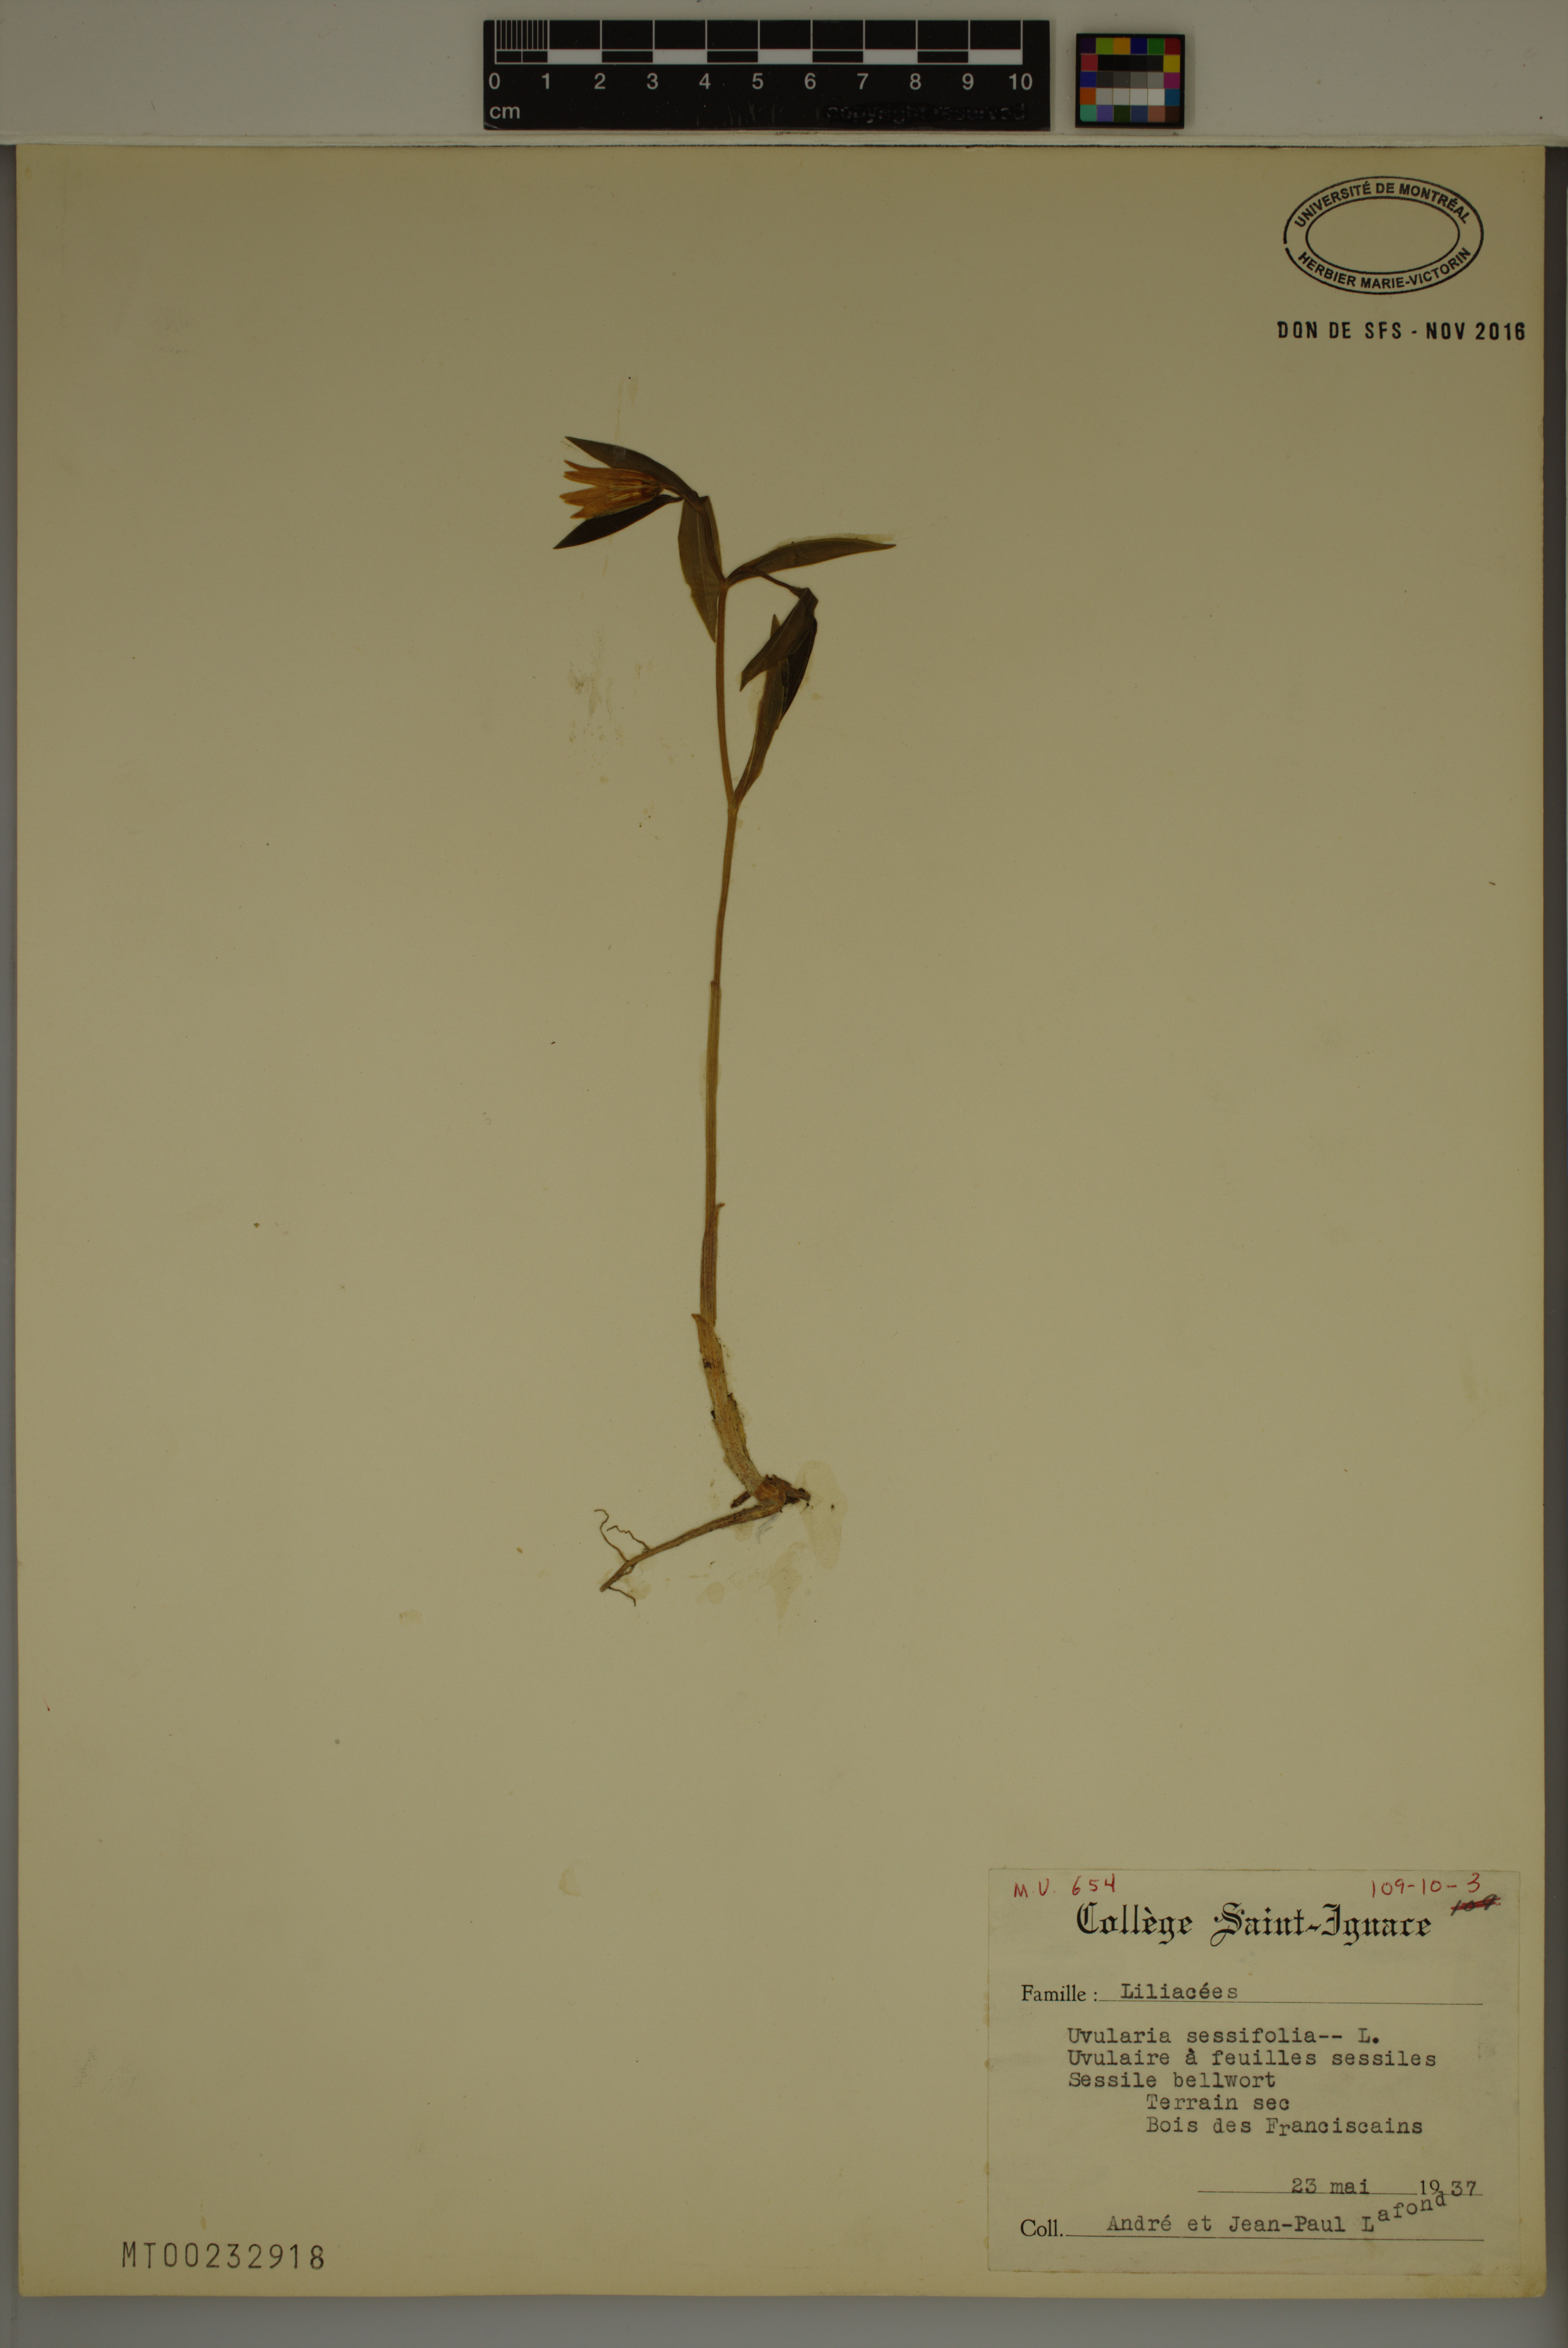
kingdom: Plantae
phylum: Tracheophyta
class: Liliopsida
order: Liliales
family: Colchicaceae
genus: Uvularia
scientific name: Uvularia sessilifolia
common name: Straw-lily
